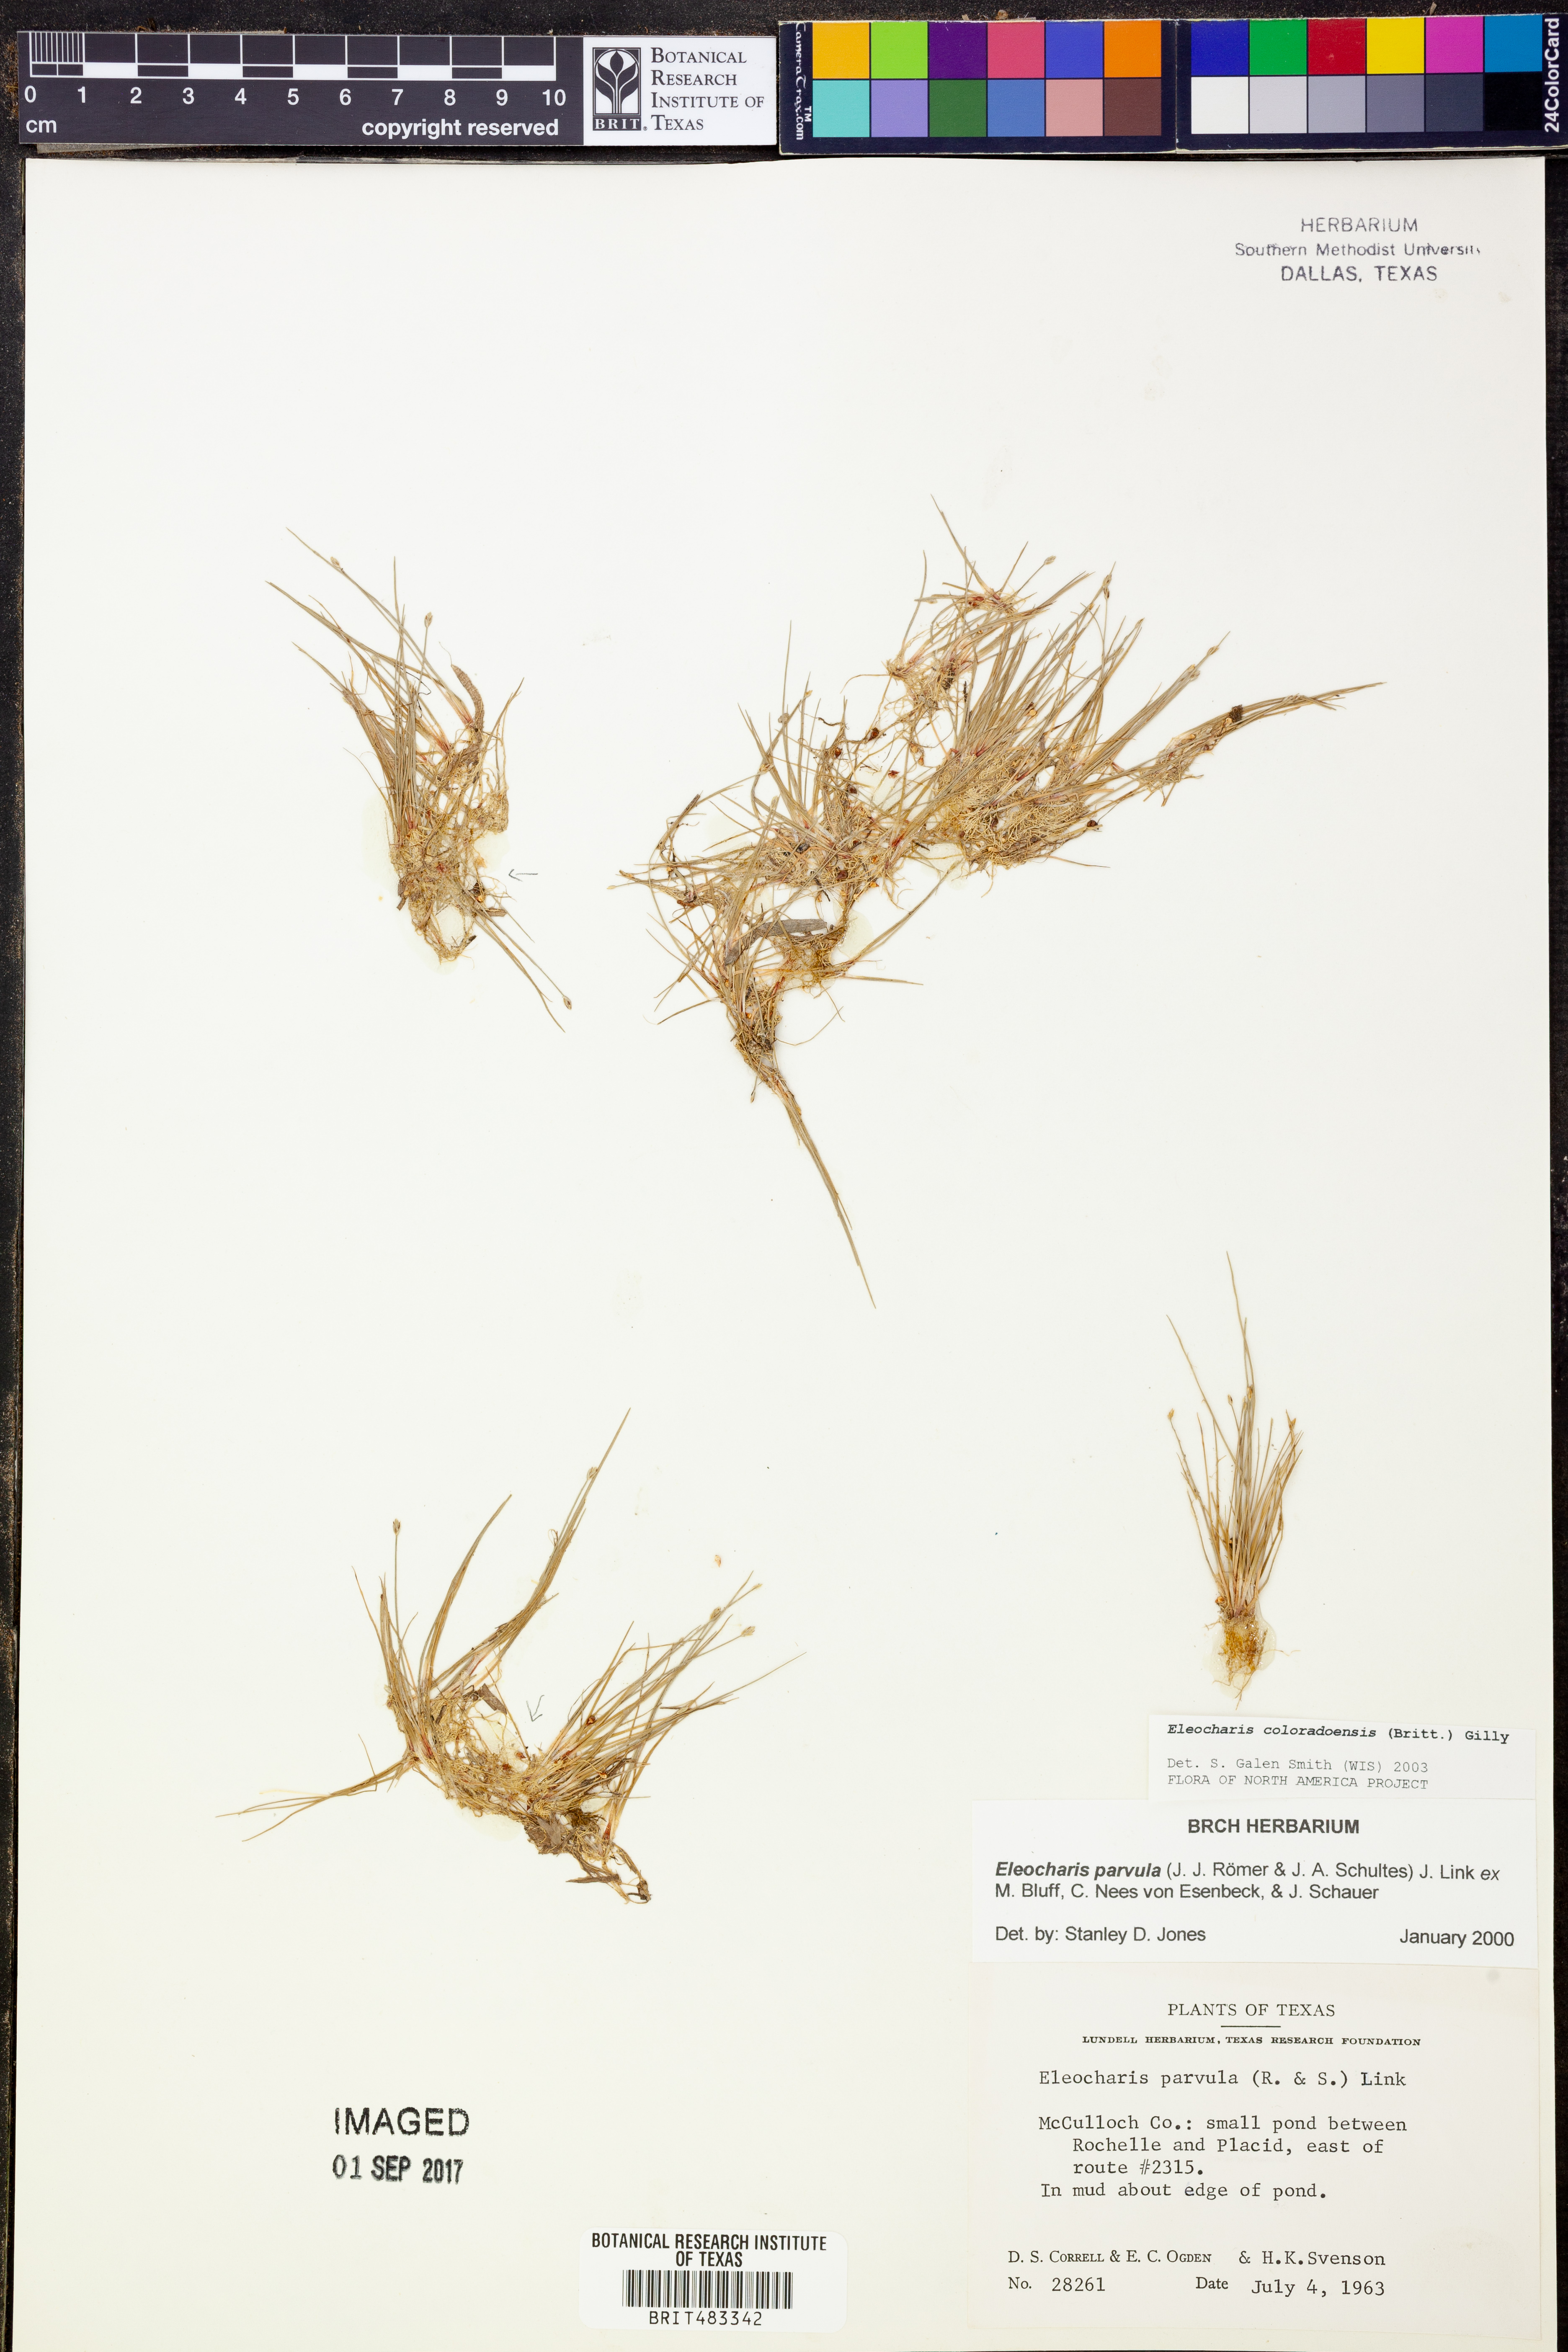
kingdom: Plantae
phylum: Tracheophyta
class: Liliopsida
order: Poales
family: Cyperaceae
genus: Eleocharis
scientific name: Eleocharis coloradoensis
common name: Colorado spikerush
